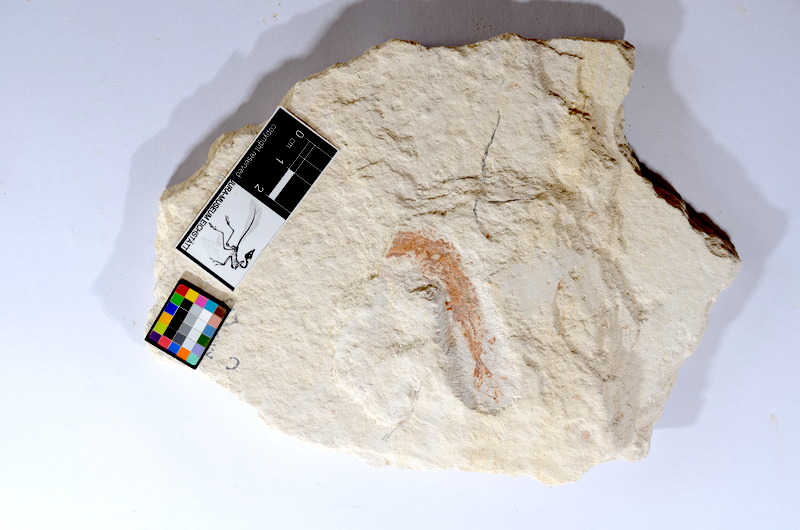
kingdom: Animalia
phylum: Chordata
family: Aspidorhynchidae
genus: Belonostomus
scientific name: Belonostomus tenuirostris
